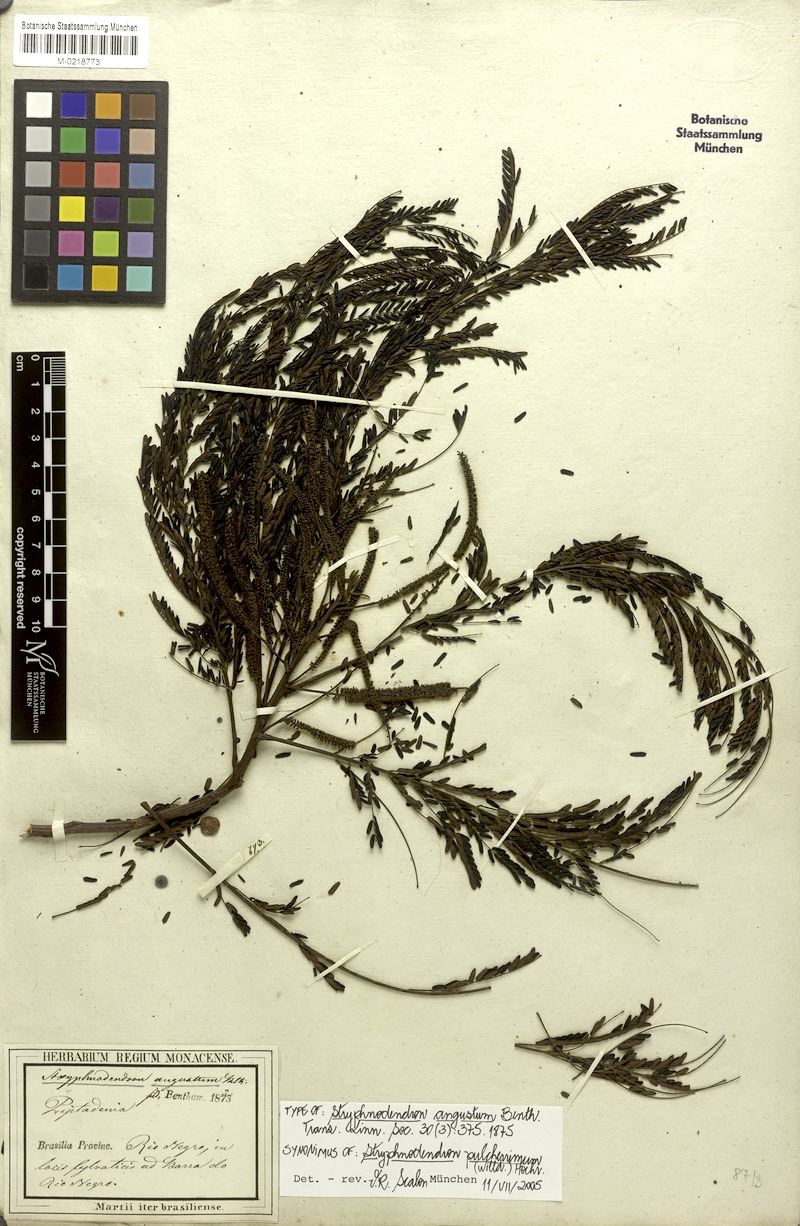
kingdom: Plantae
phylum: Tracheophyta
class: Magnoliopsida
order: Fabales
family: Fabaceae
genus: Stryphnodendron
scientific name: Stryphnodendron pulcherrimum
